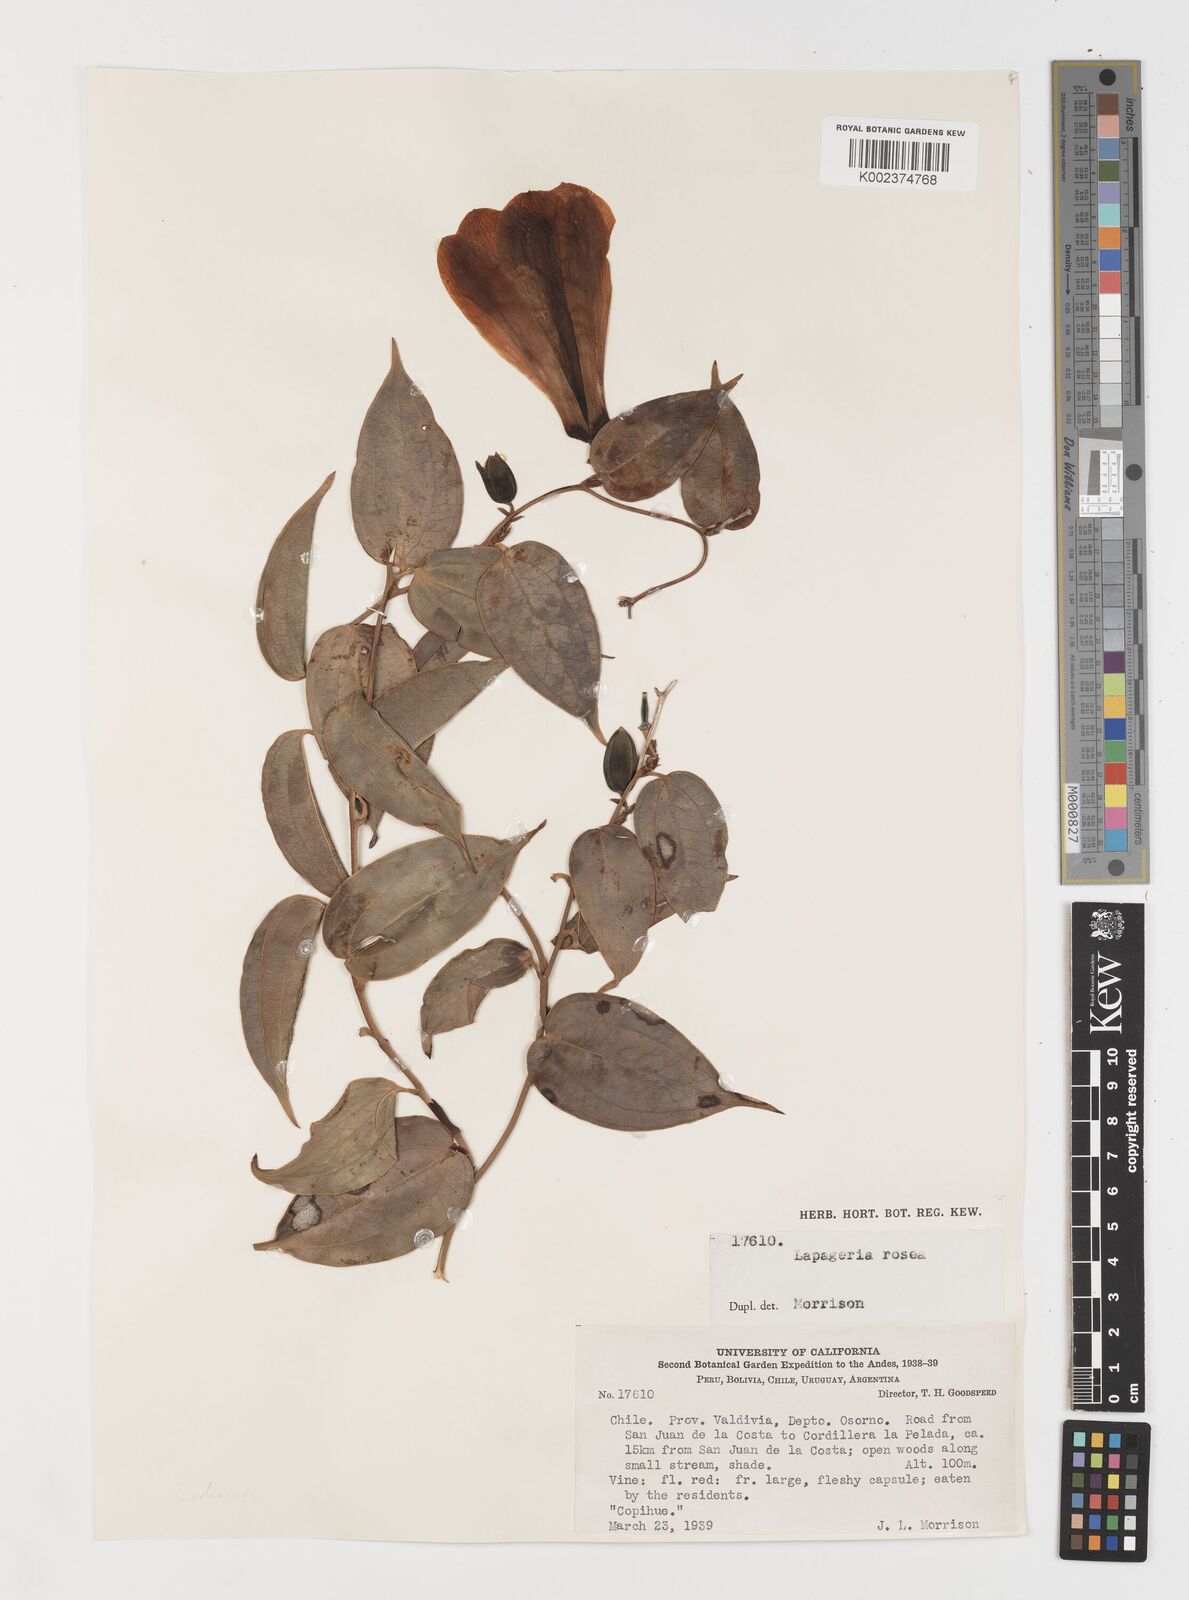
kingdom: Plantae
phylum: Tracheophyta
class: Liliopsida
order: Liliales
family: Philesiaceae
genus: Lapageria
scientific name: Lapageria rosea
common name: Chilean-bellflower
